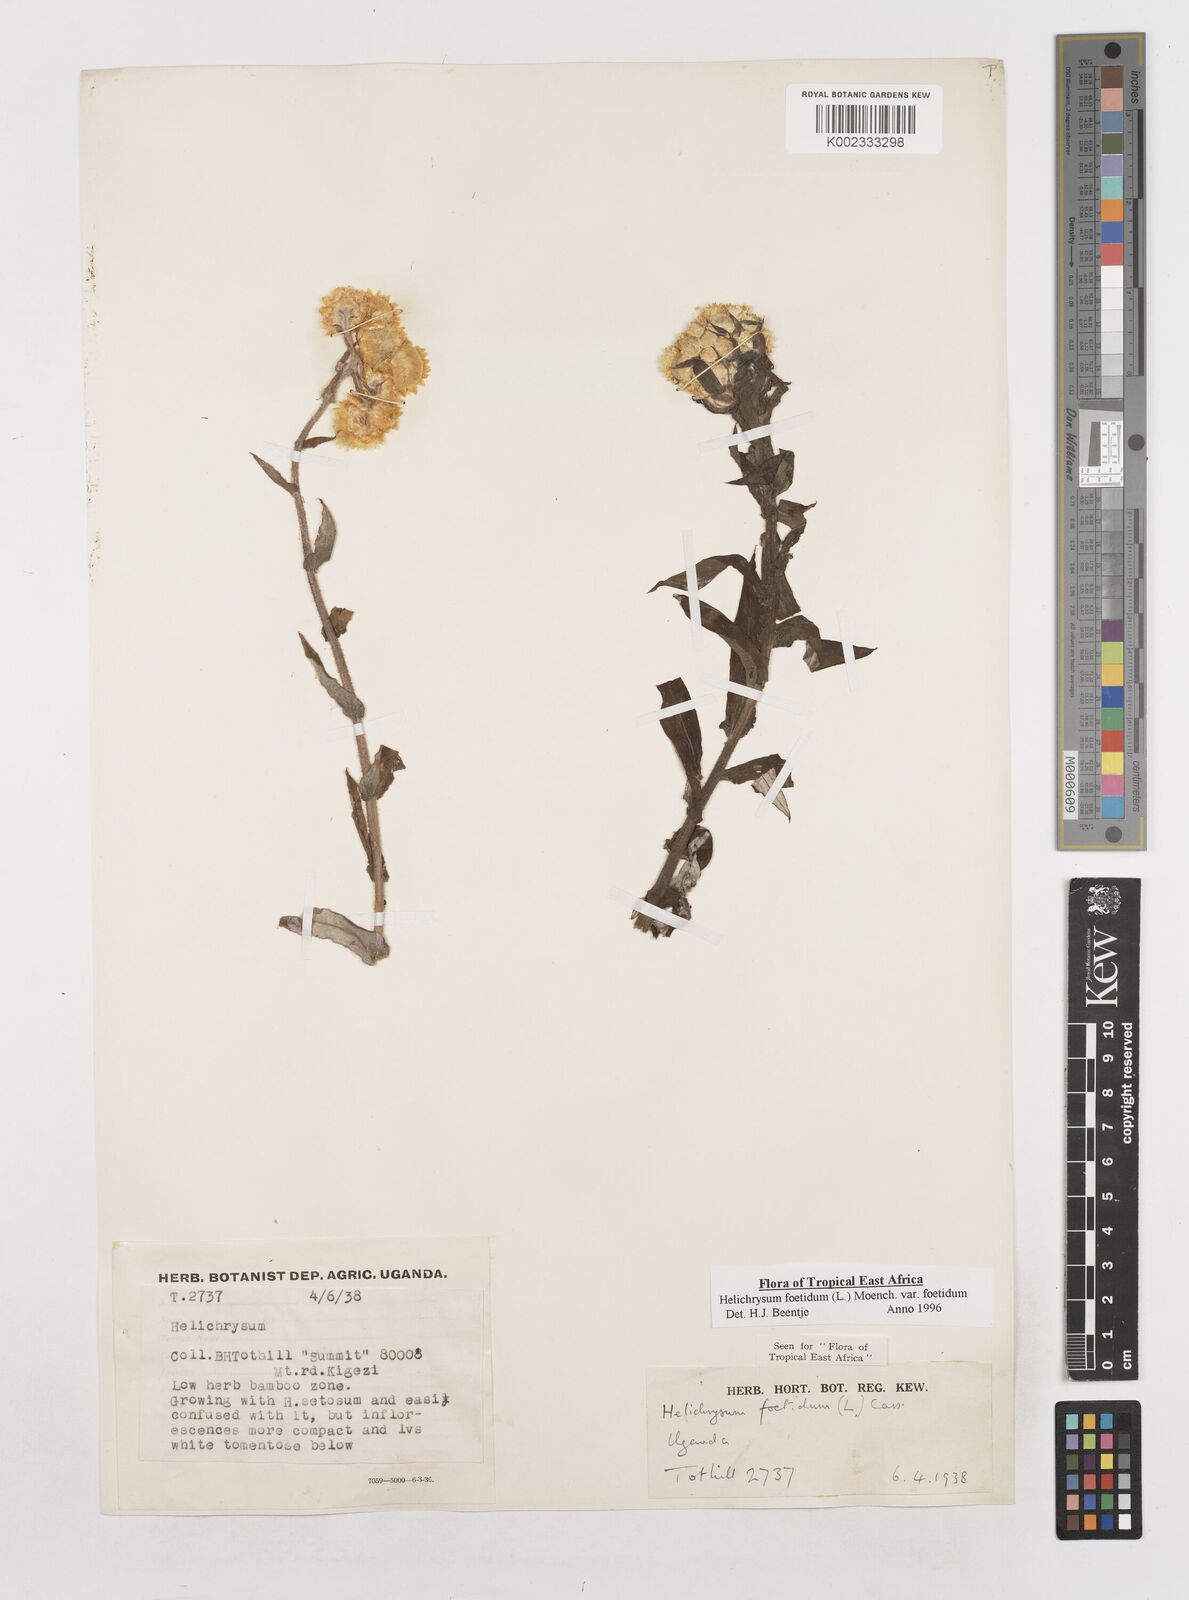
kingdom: Plantae
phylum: Tracheophyta
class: Magnoliopsida
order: Asterales
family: Asteraceae
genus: Helichrysum
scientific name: Helichrysum foetidum
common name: Stinking everlasting
